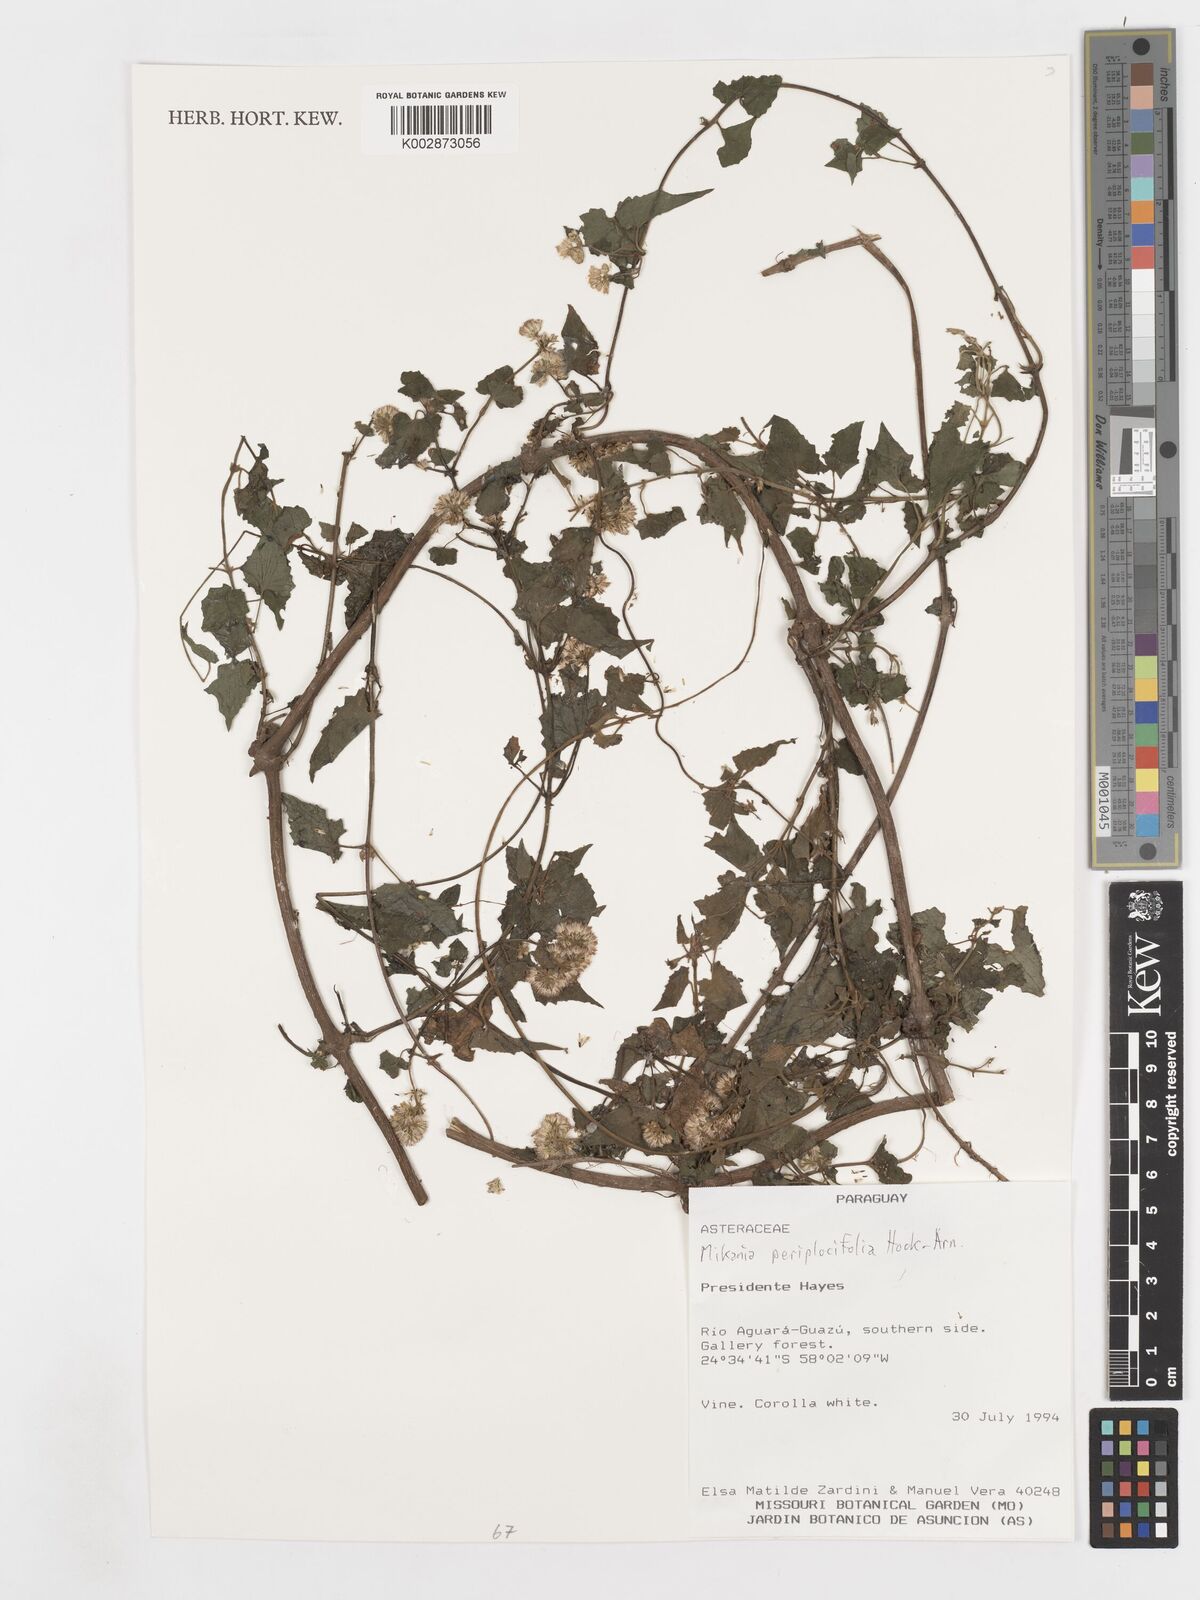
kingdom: Plantae
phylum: Tracheophyta
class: Magnoliopsida
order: Asterales
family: Asteraceae
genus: Mikania
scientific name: Mikania periplocifolia
